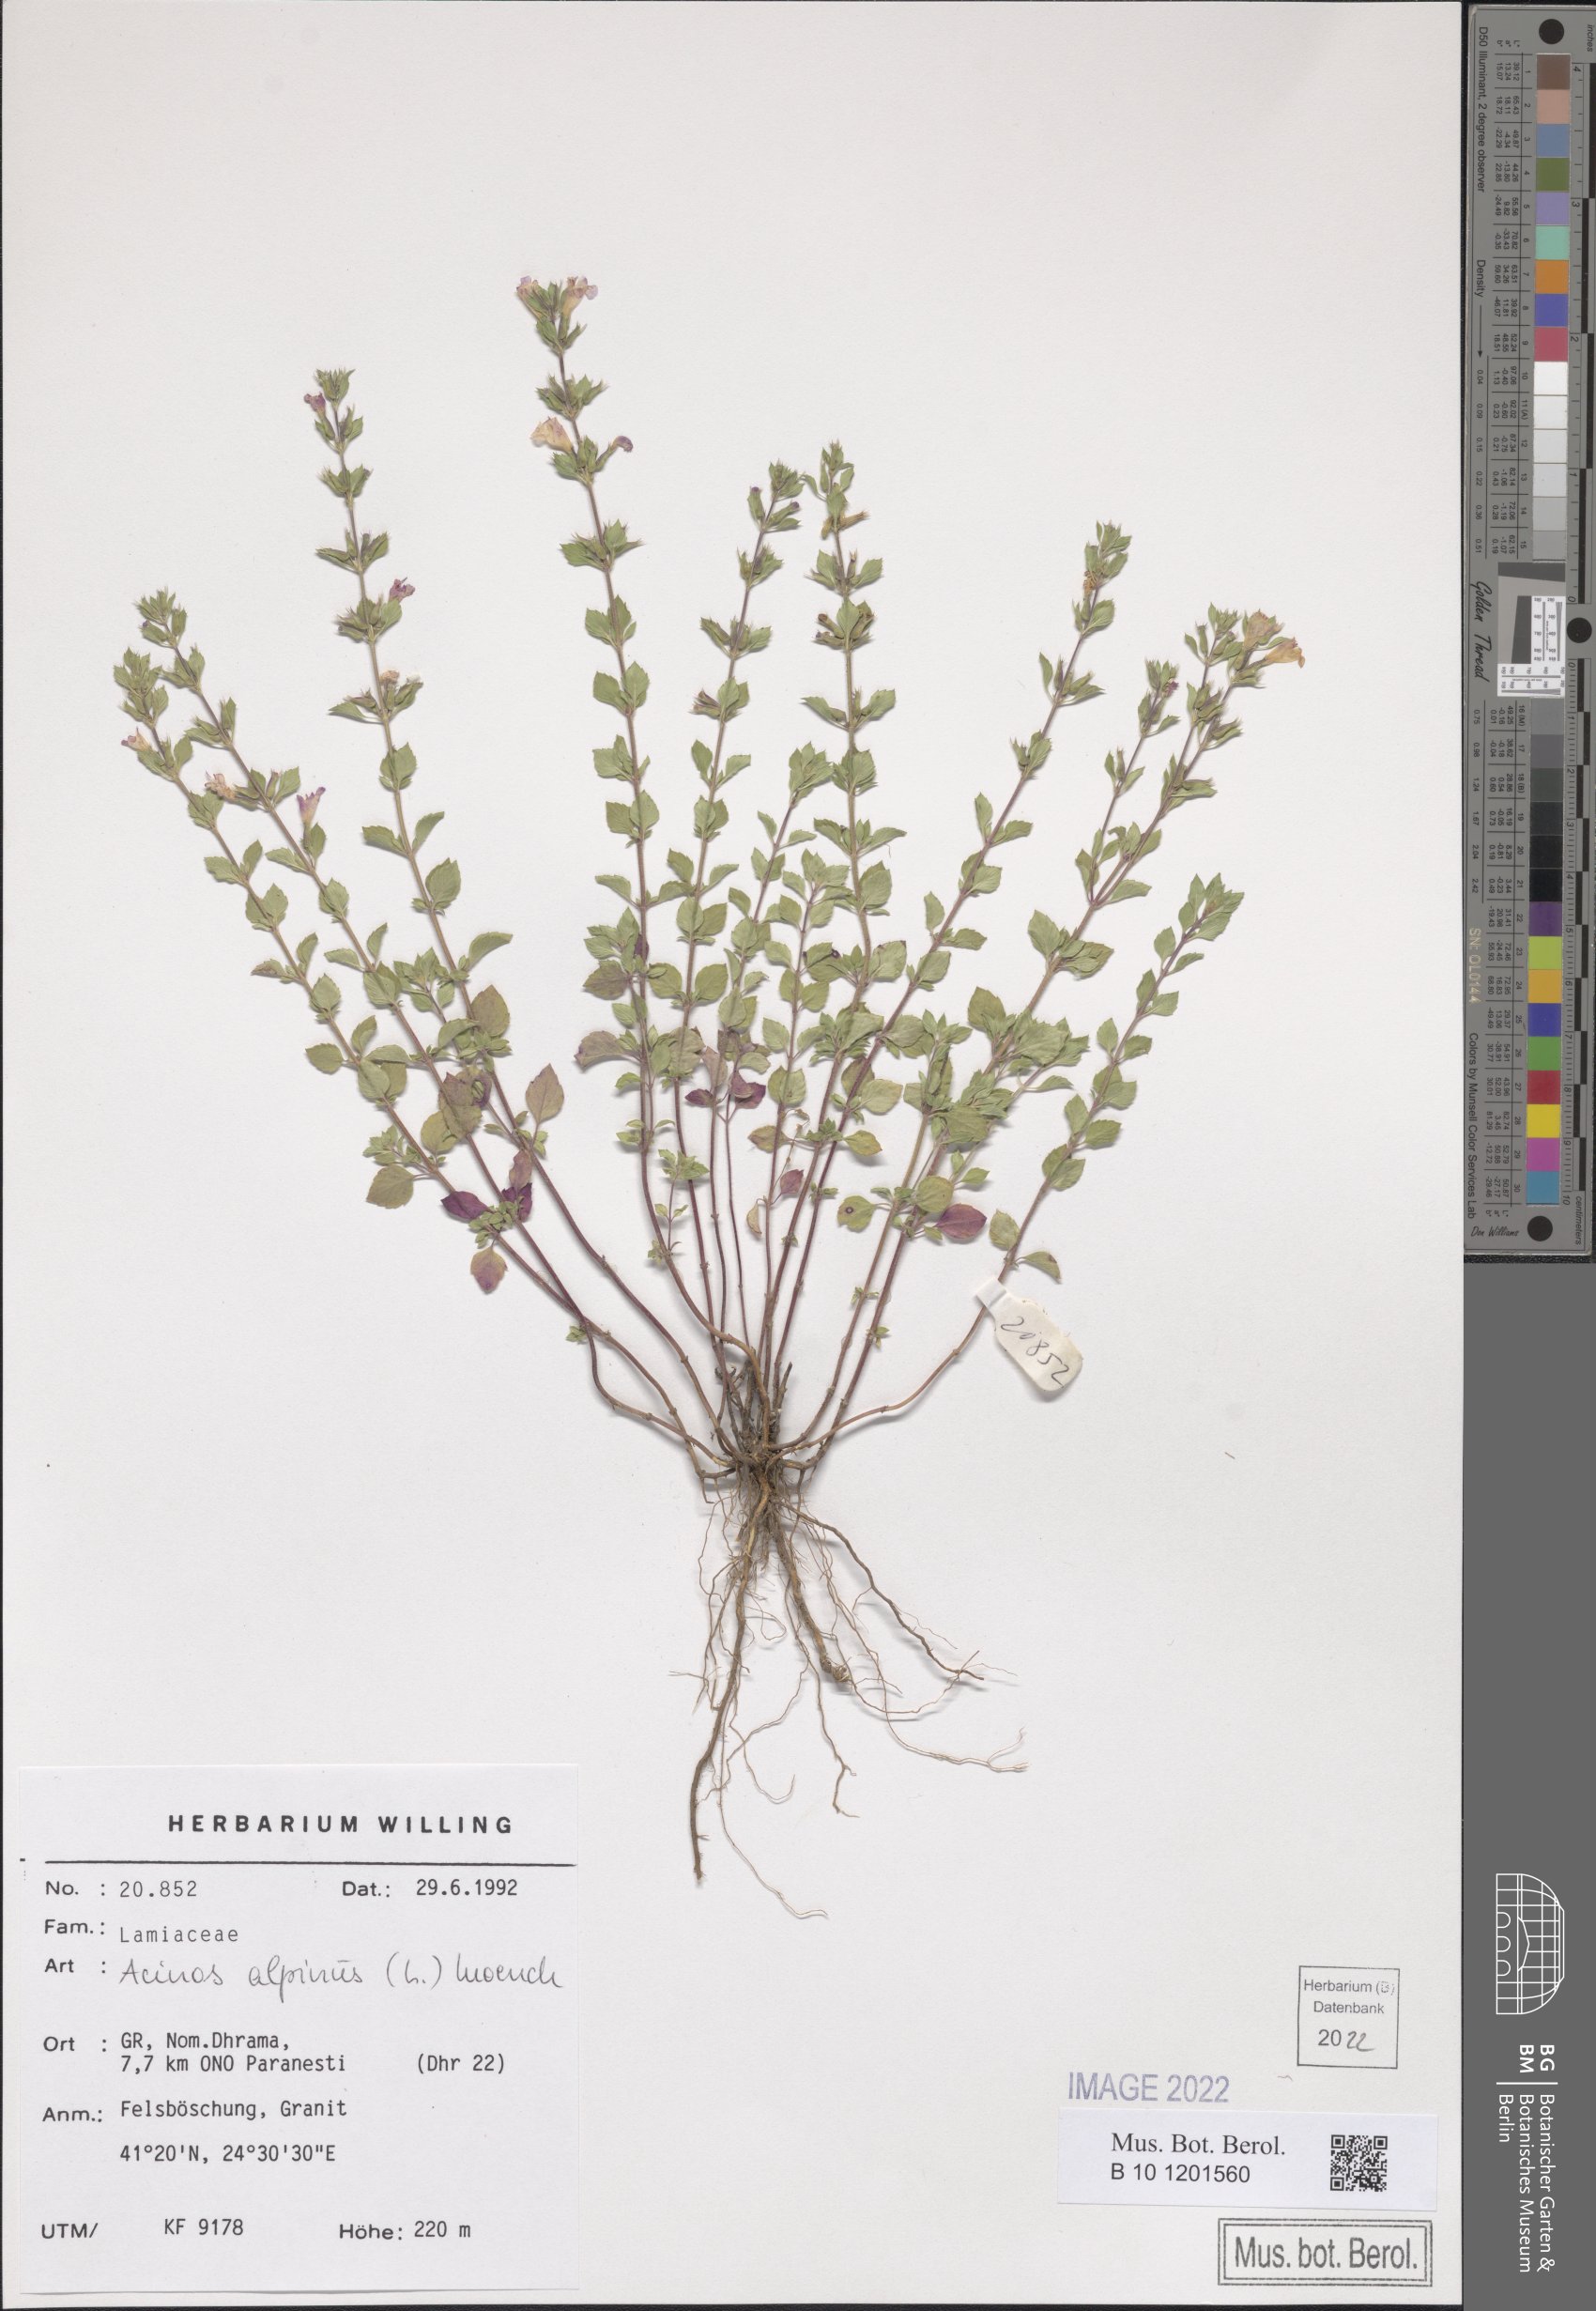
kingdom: Plantae
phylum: Tracheophyta
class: Magnoliopsida
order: Lamiales
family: Lamiaceae
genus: Clinopodium
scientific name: Clinopodium alpinum
